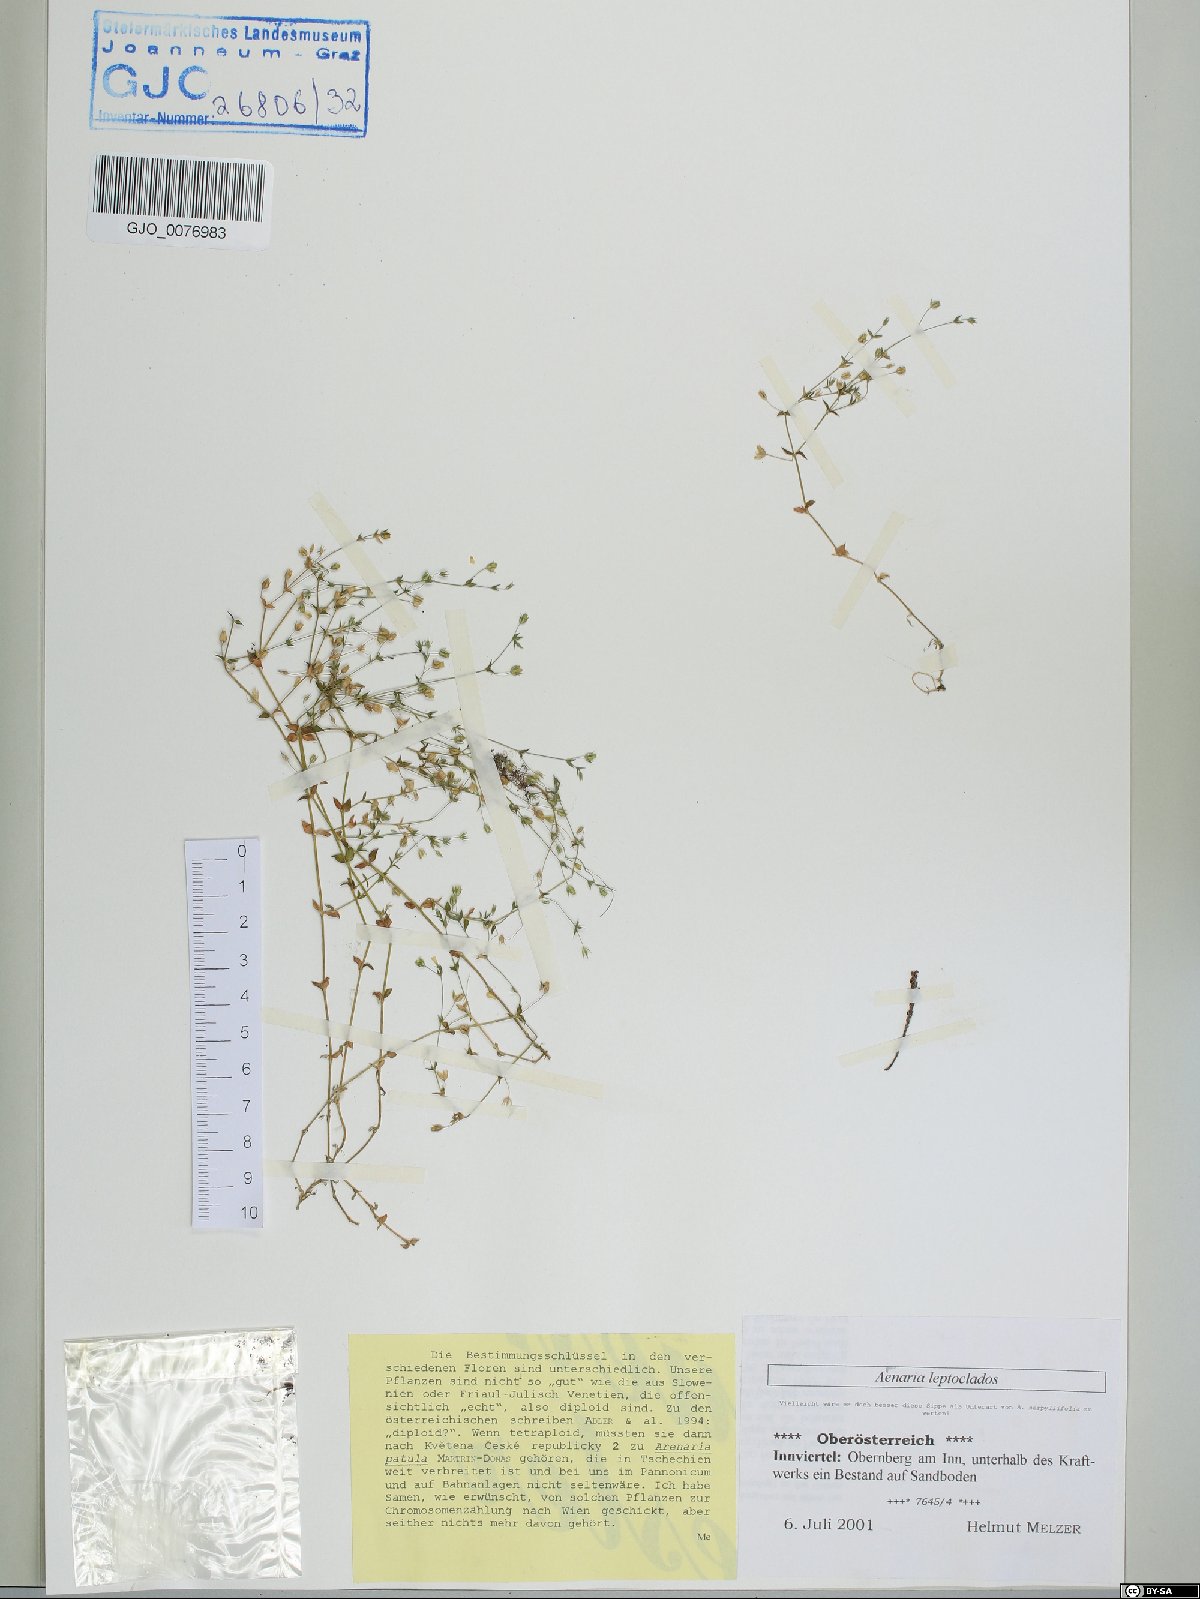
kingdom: Plantae
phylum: Tracheophyta
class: Magnoliopsida
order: Caryophyllales
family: Caryophyllaceae
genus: Arenaria
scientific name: Arenaria leptoclados
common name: Thyme-leaved sandwort
